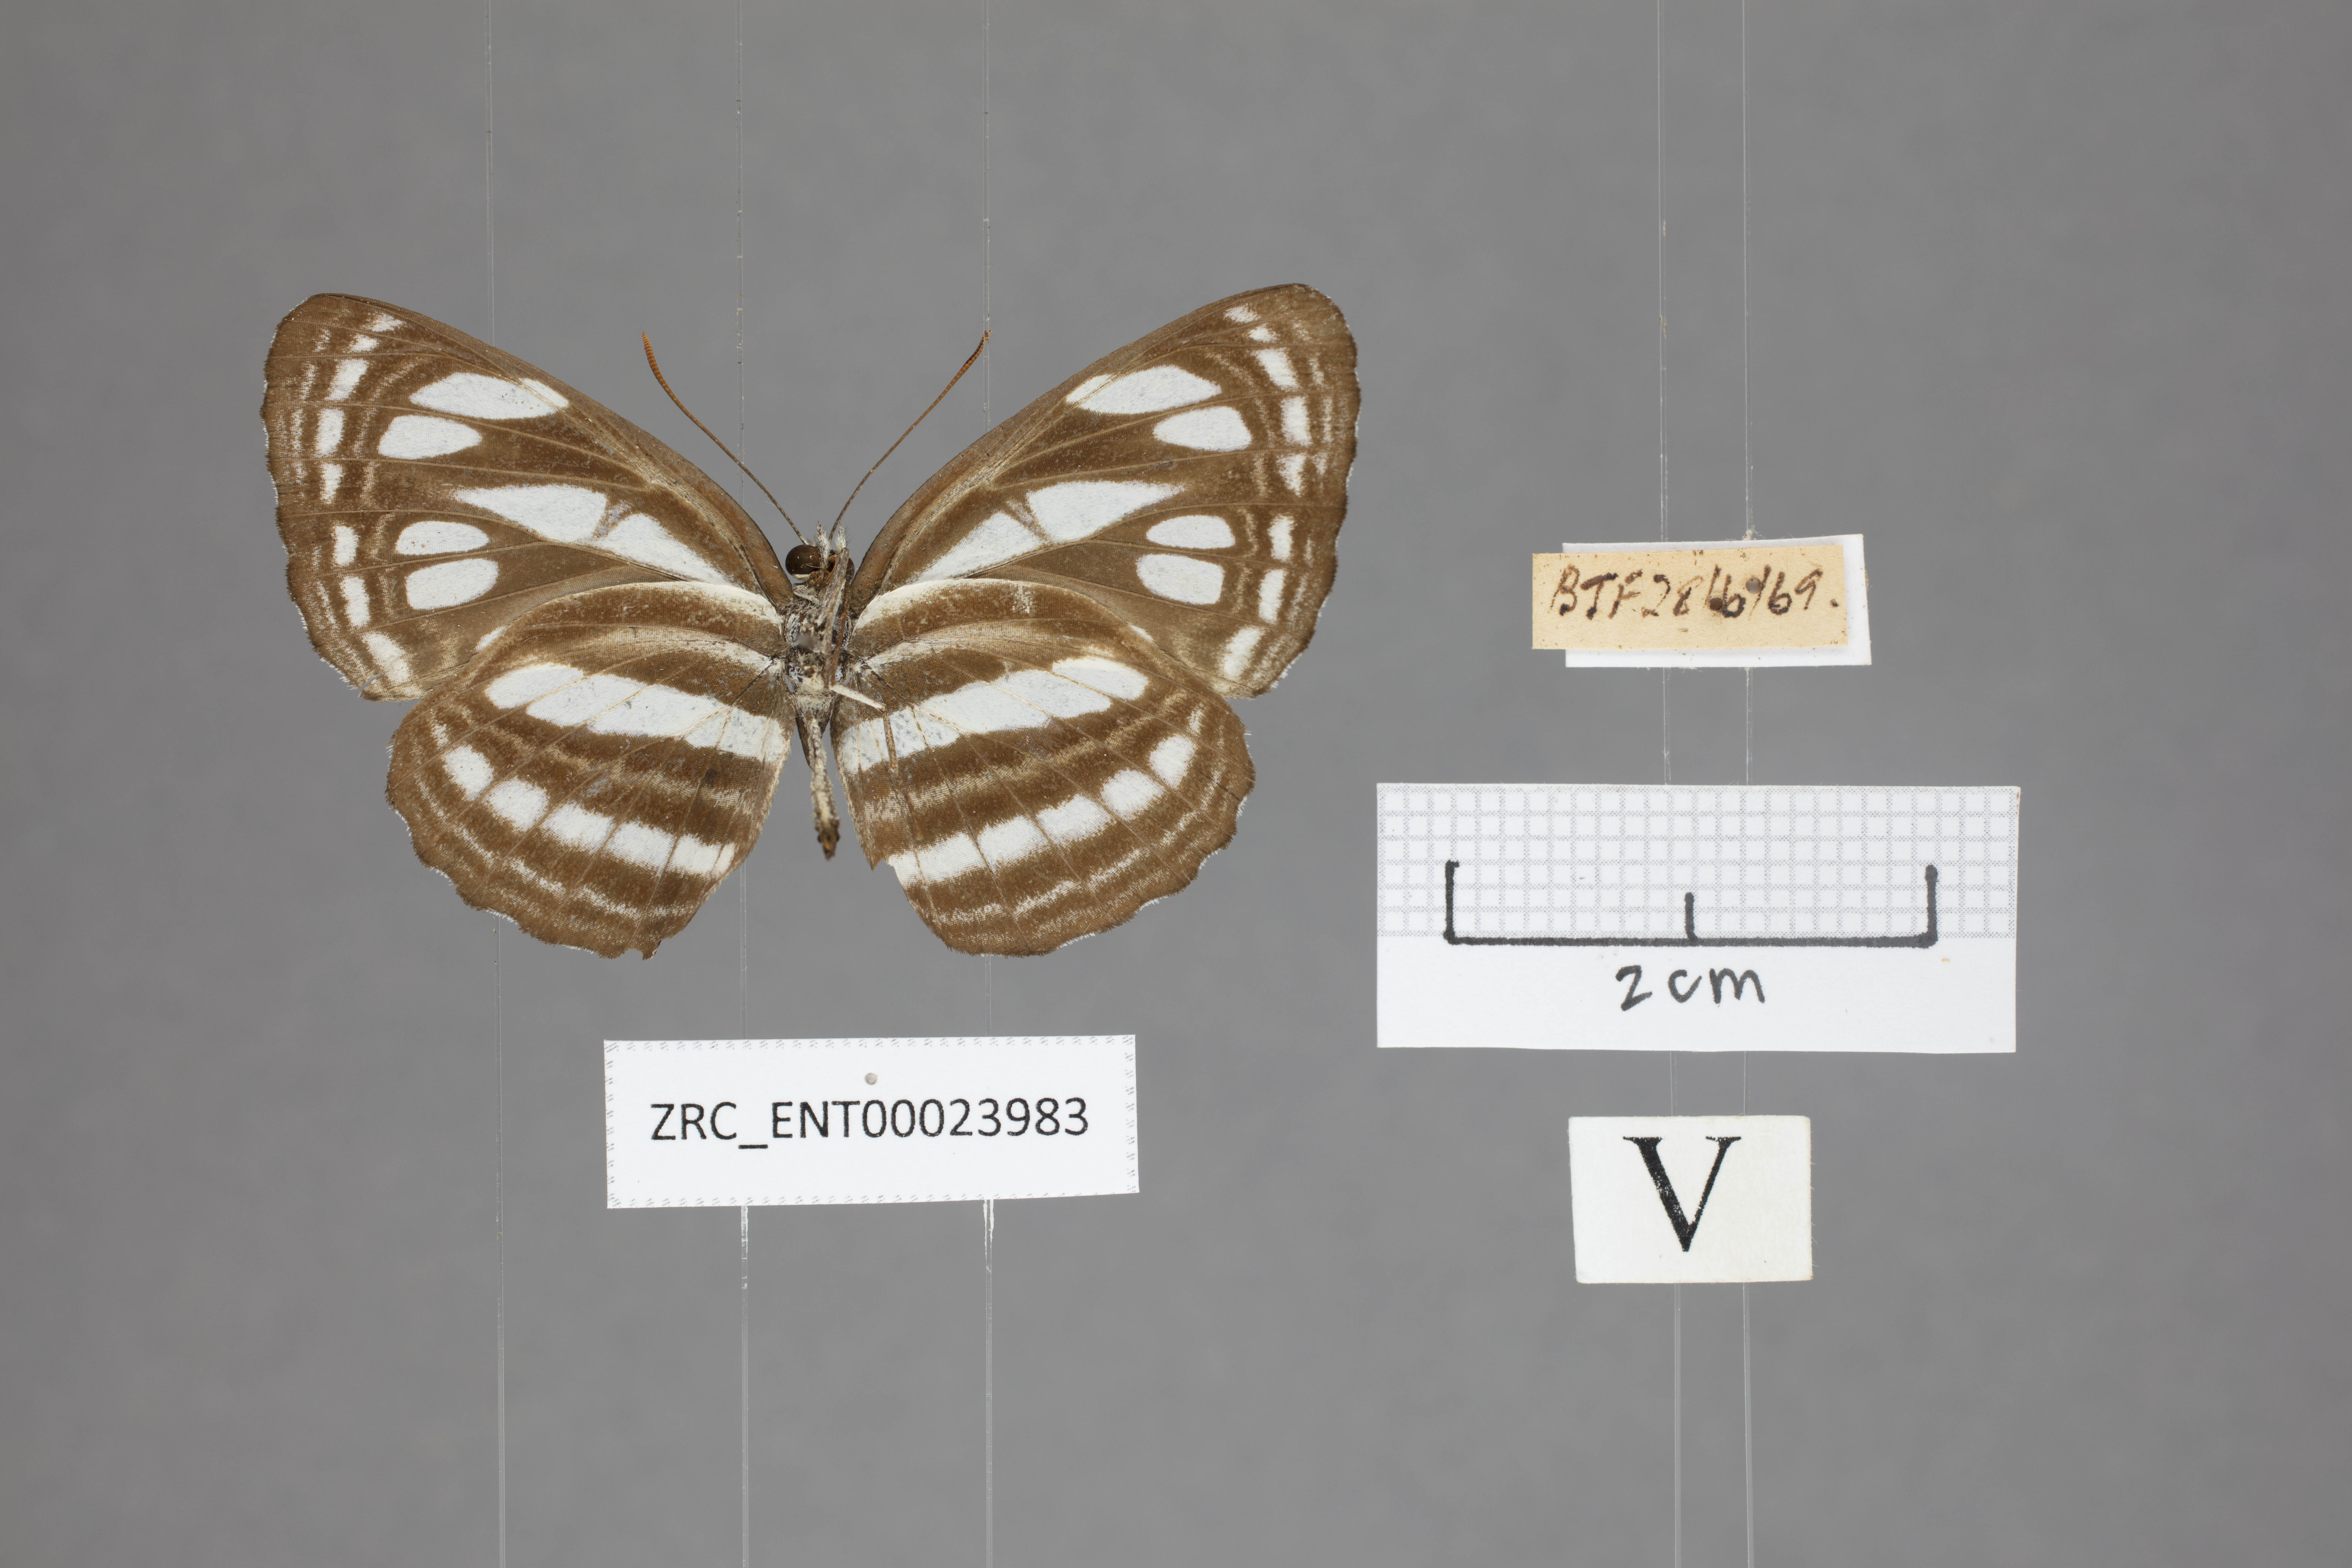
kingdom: Animalia
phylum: Arthropoda
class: Insecta
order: Lepidoptera
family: Nymphalidae
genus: Neptis
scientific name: Neptis duryodana
